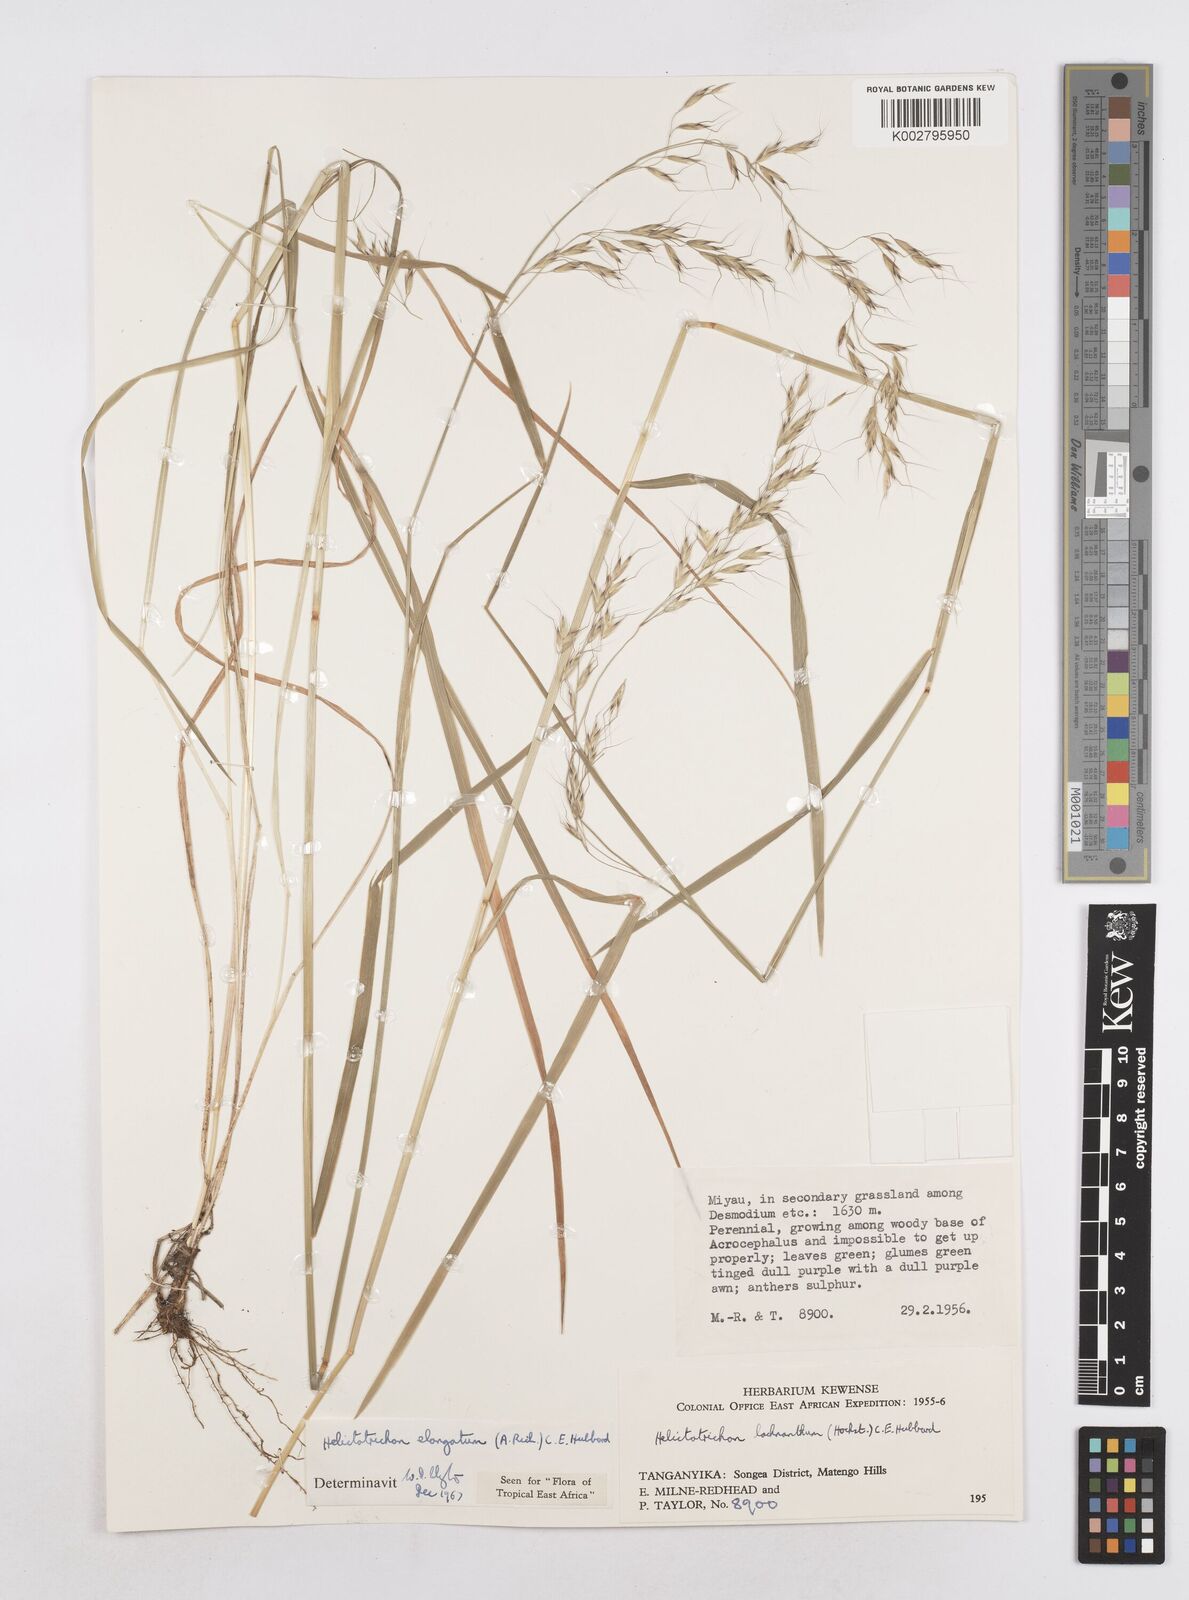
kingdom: Plantae
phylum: Tracheophyta
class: Liliopsida
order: Poales
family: Poaceae
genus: Trisetopsis
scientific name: Trisetopsis elongata
